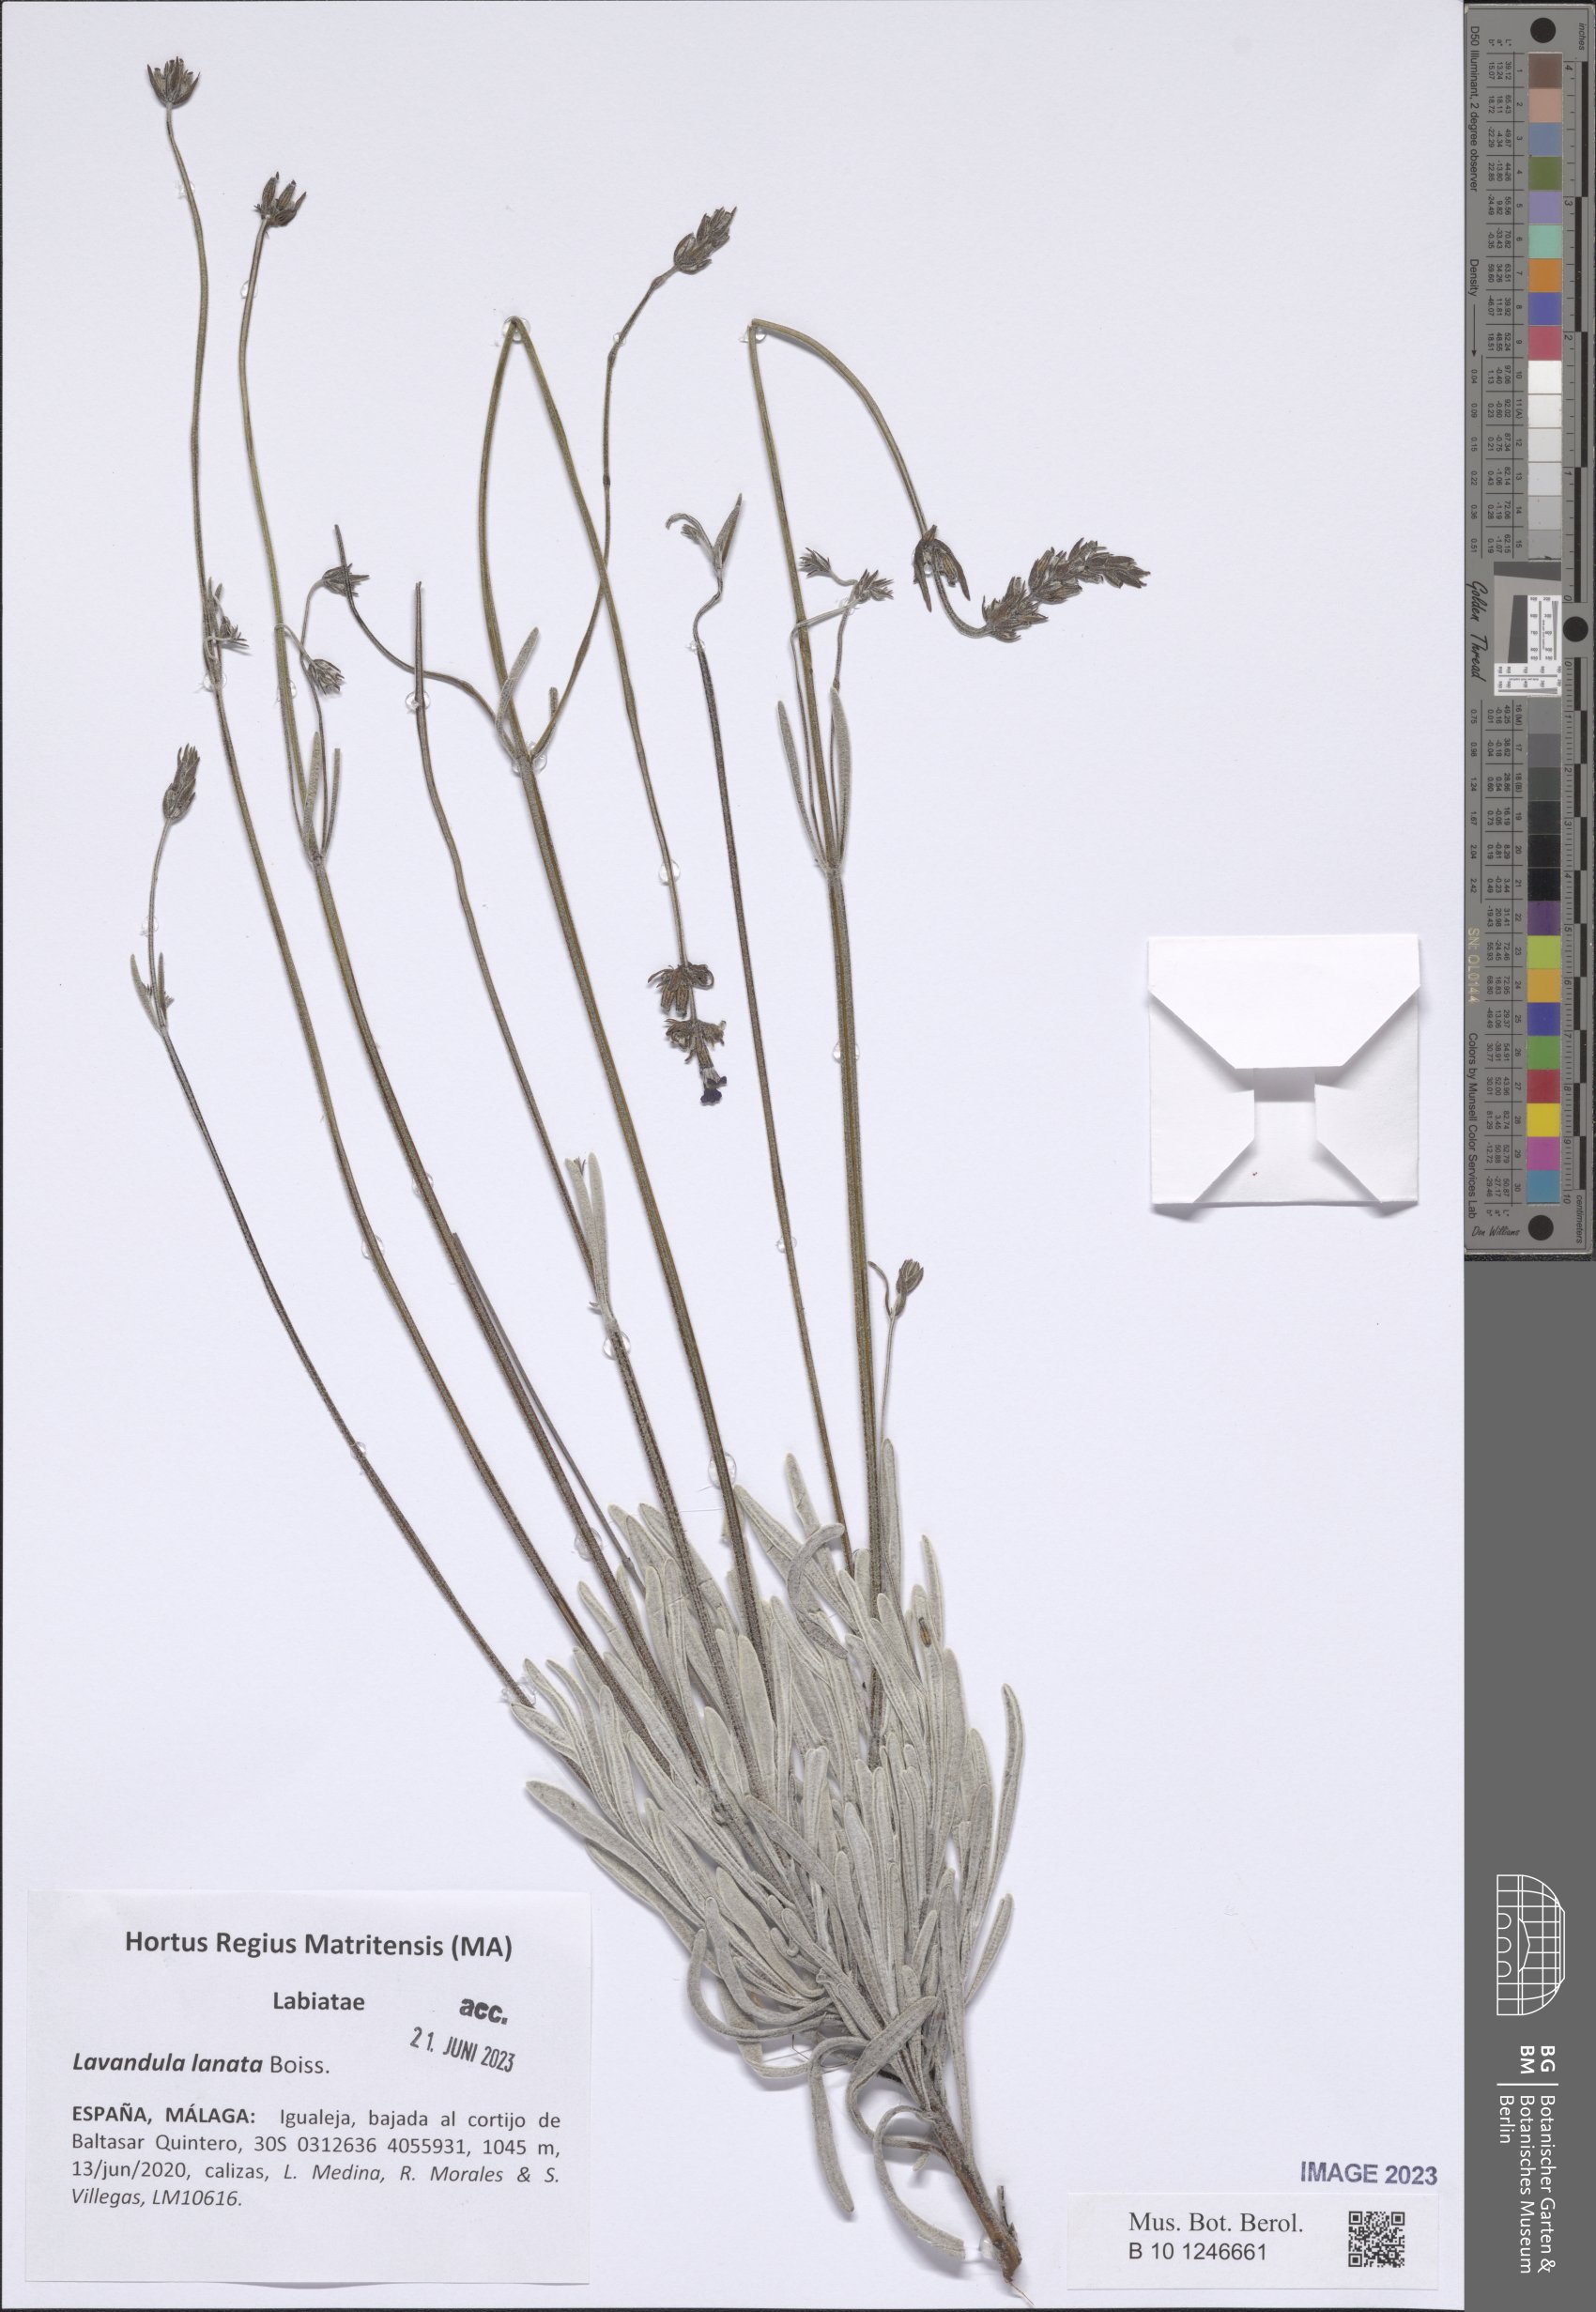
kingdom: Plantae
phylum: Tracheophyta
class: Magnoliopsida
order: Lamiales
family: Lamiaceae
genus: Lavandula
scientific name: Lavandula lanata
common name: Woolly lavender
